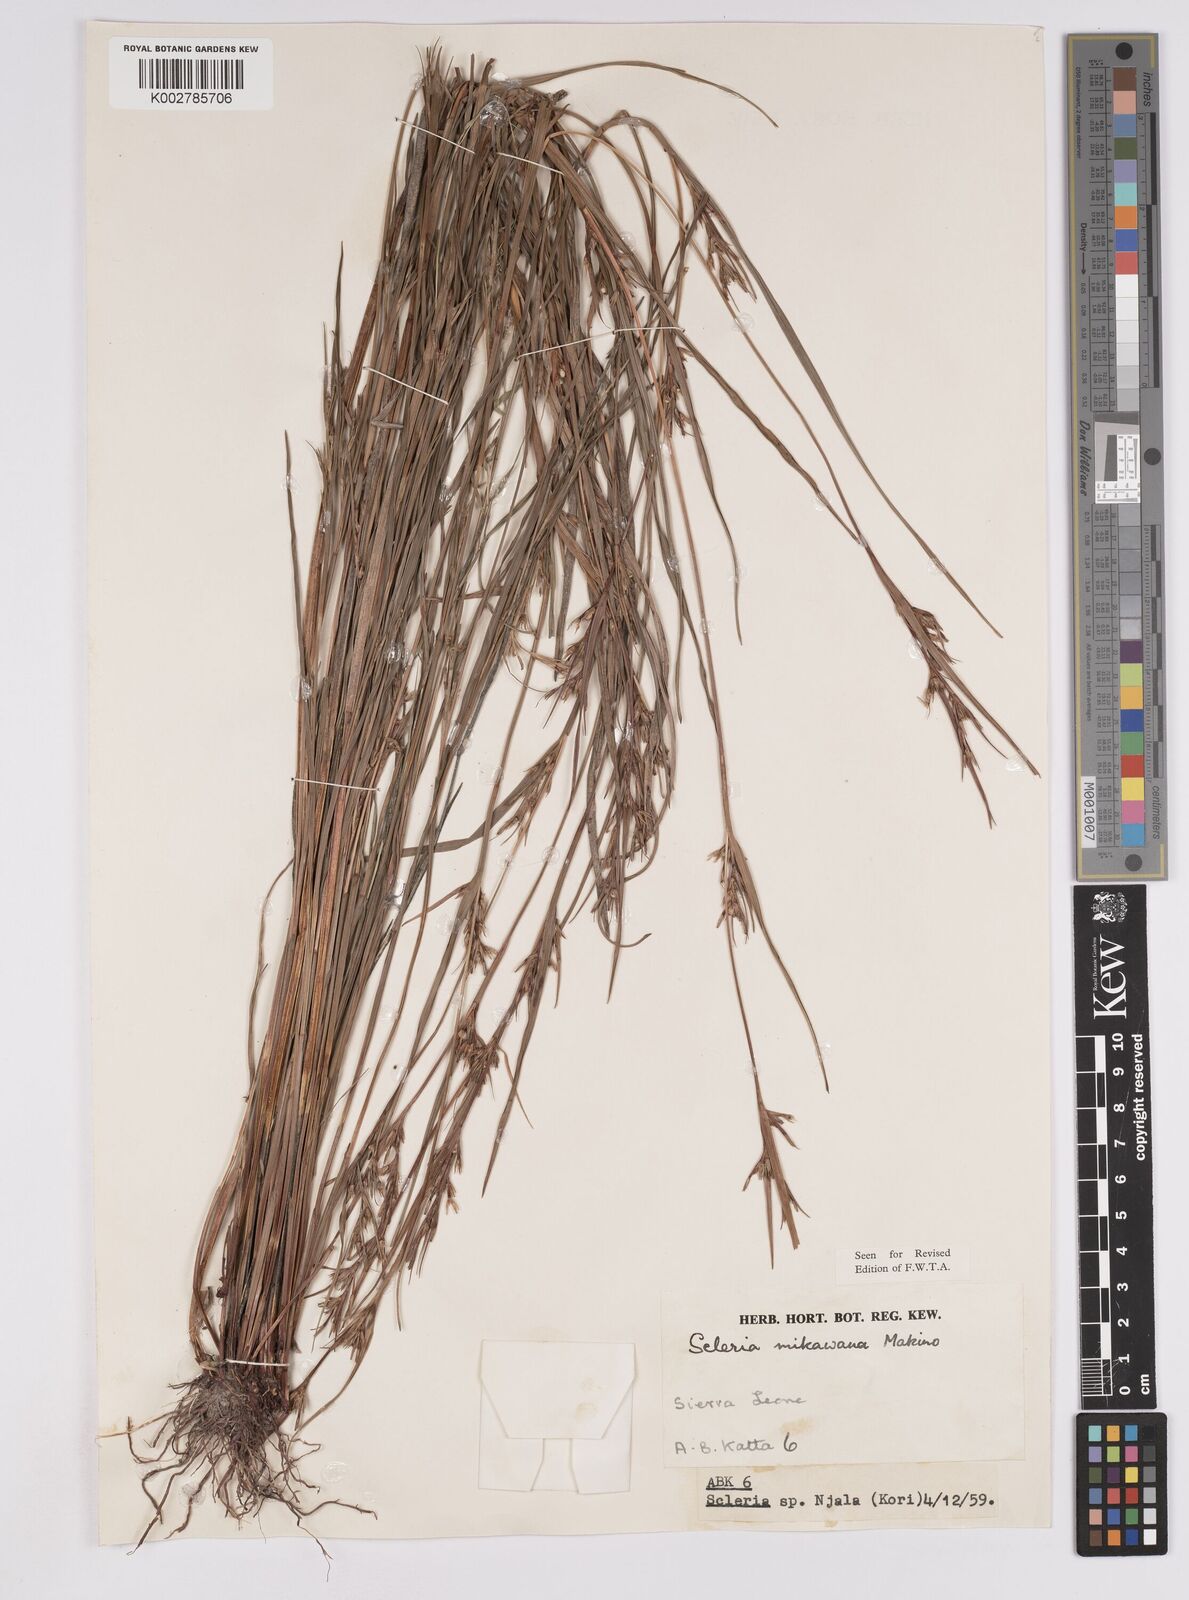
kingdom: Plantae
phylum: Tracheophyta
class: Liliopsida
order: Poales
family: Cyperaceae
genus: Scleria
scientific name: Scleria mikawana
